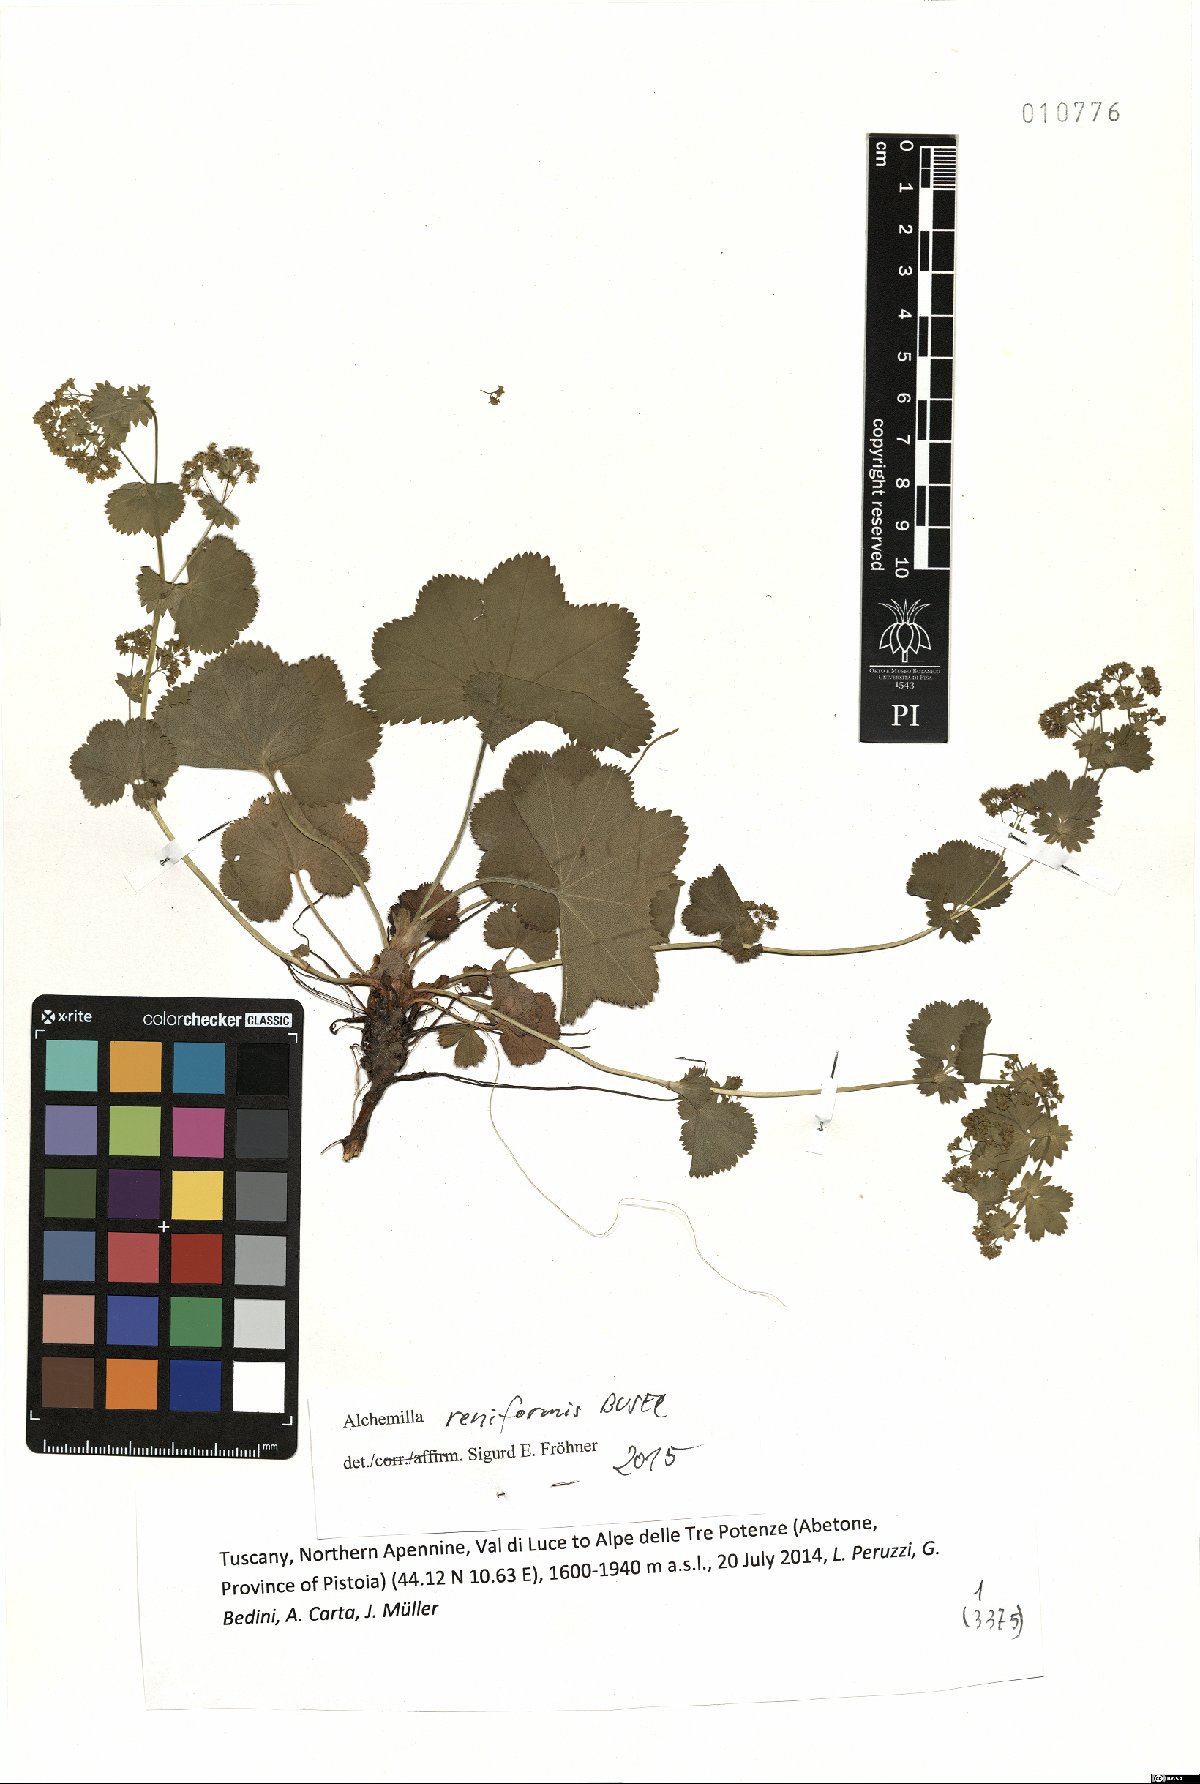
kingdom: Plantae
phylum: Tracheophyta
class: Magnoliopsida
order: Rosales
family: Rosaceae
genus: Alchemilla
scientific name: Alchemilla reniformis
